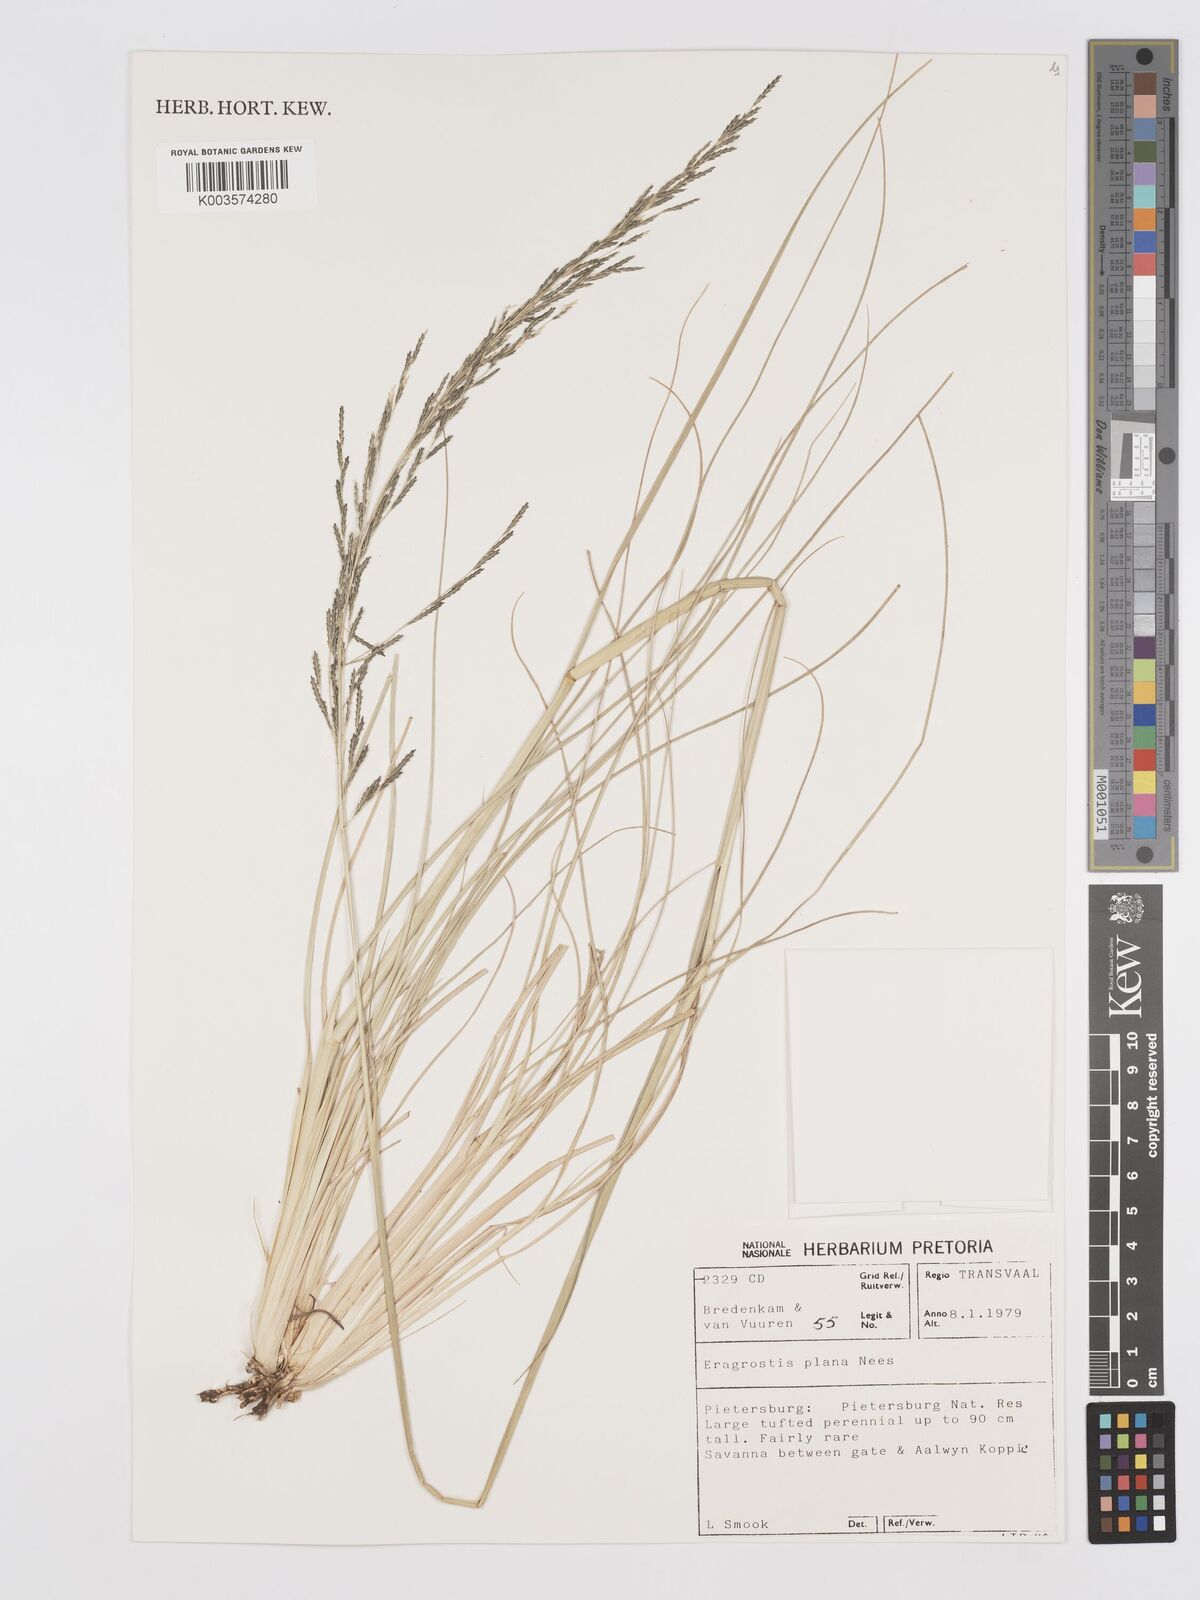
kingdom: Plantae
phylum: Tracheophyta
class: Liliopsida
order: Poales
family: Poaceae
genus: Eragrostis
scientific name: Eragrostis plana
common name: South african lovegrass
